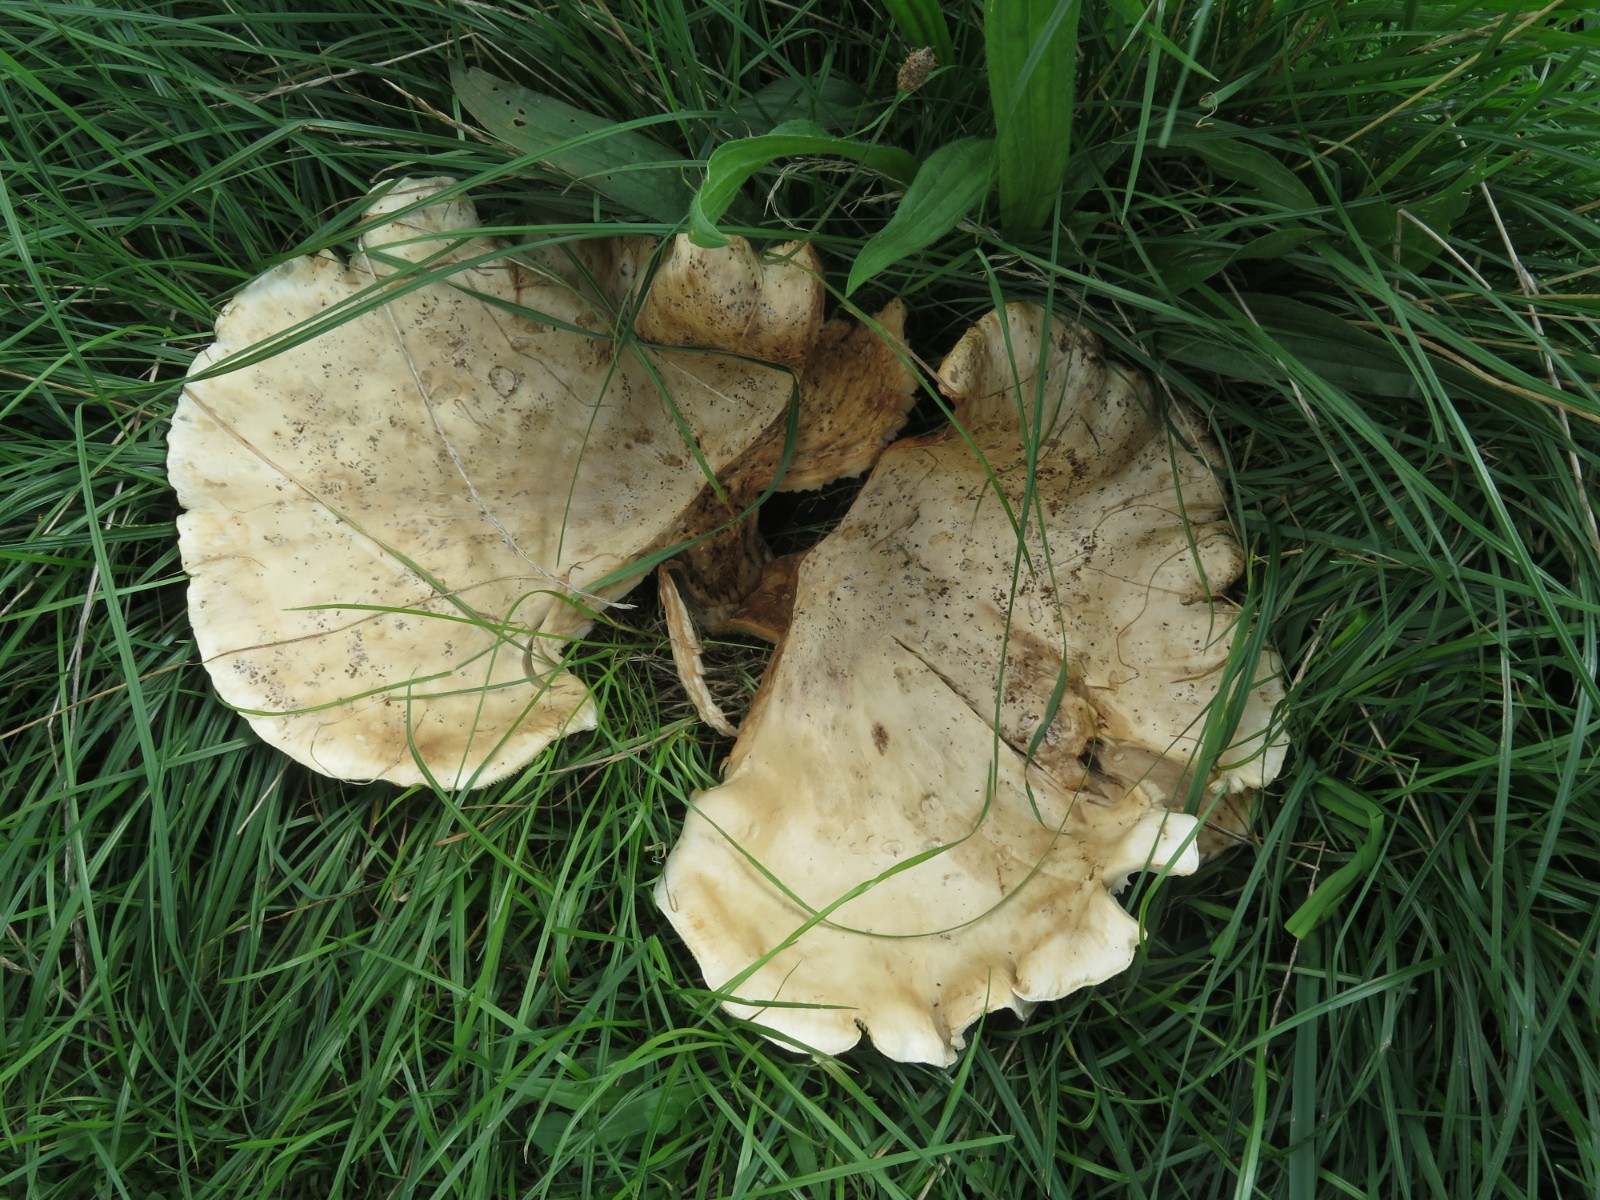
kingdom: Fungi
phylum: Basidiomycota
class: Agaricomycetes
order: Russulales
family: Russulaceae
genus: Russula
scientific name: Russula delica
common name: almindelig tragt-skørhat
